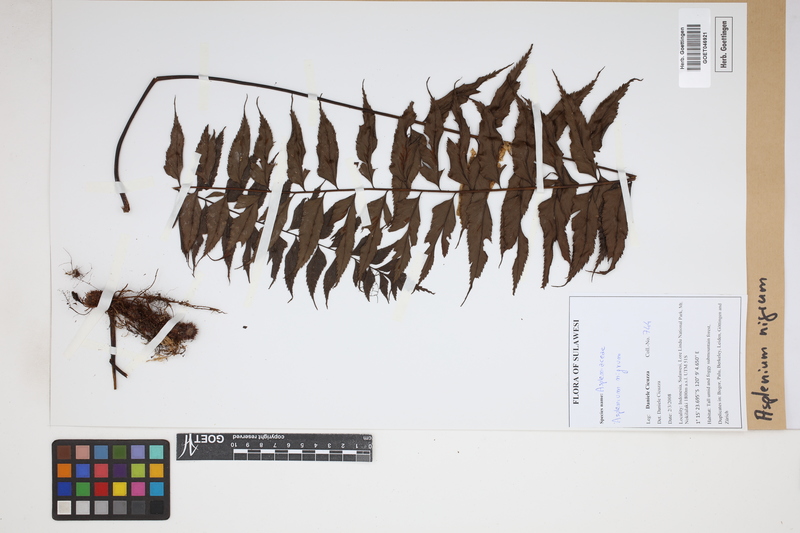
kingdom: Plantae
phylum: Tracheophyta
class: Polypodiopsida
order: Polypodiales
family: Aspleniaceae
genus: Asplenium
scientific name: Asplenium adiantum-nigrum
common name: Black spleenwort
